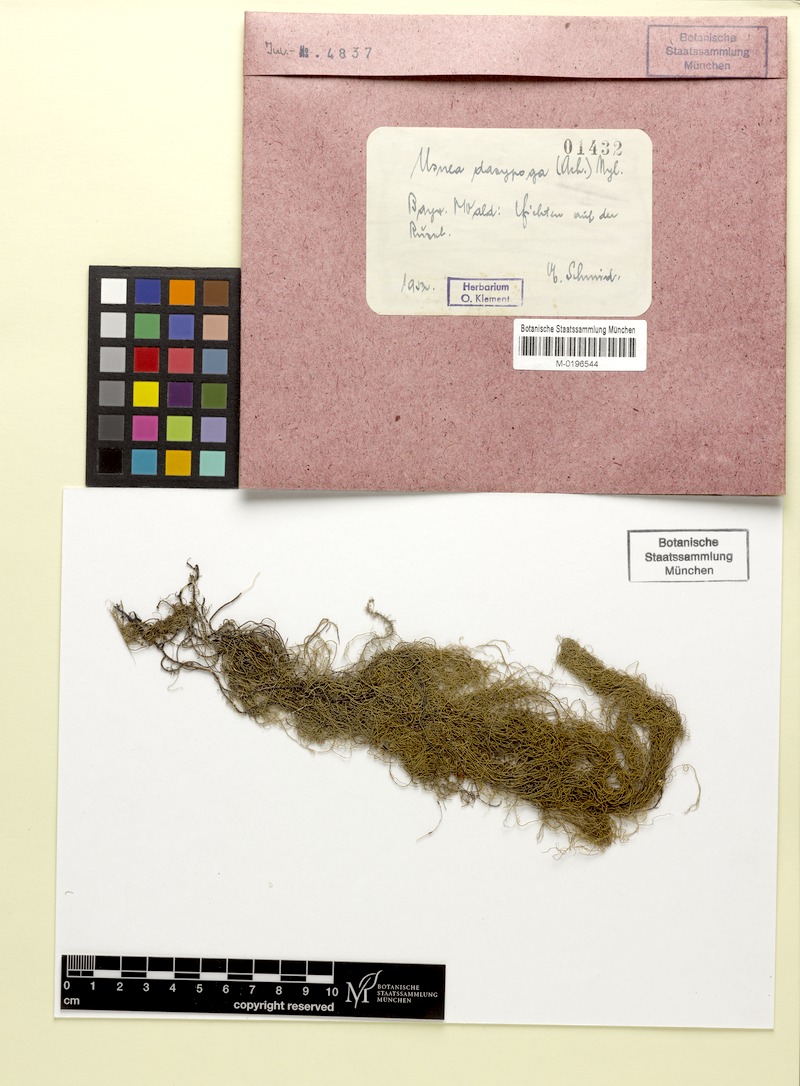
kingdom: Fungi
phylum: Ascomycota
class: Lecanoromycetes
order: Lecanorales
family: Parmeliaceae
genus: Usnea
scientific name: Usnea dasopoga
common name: Fishbone beard lichen
